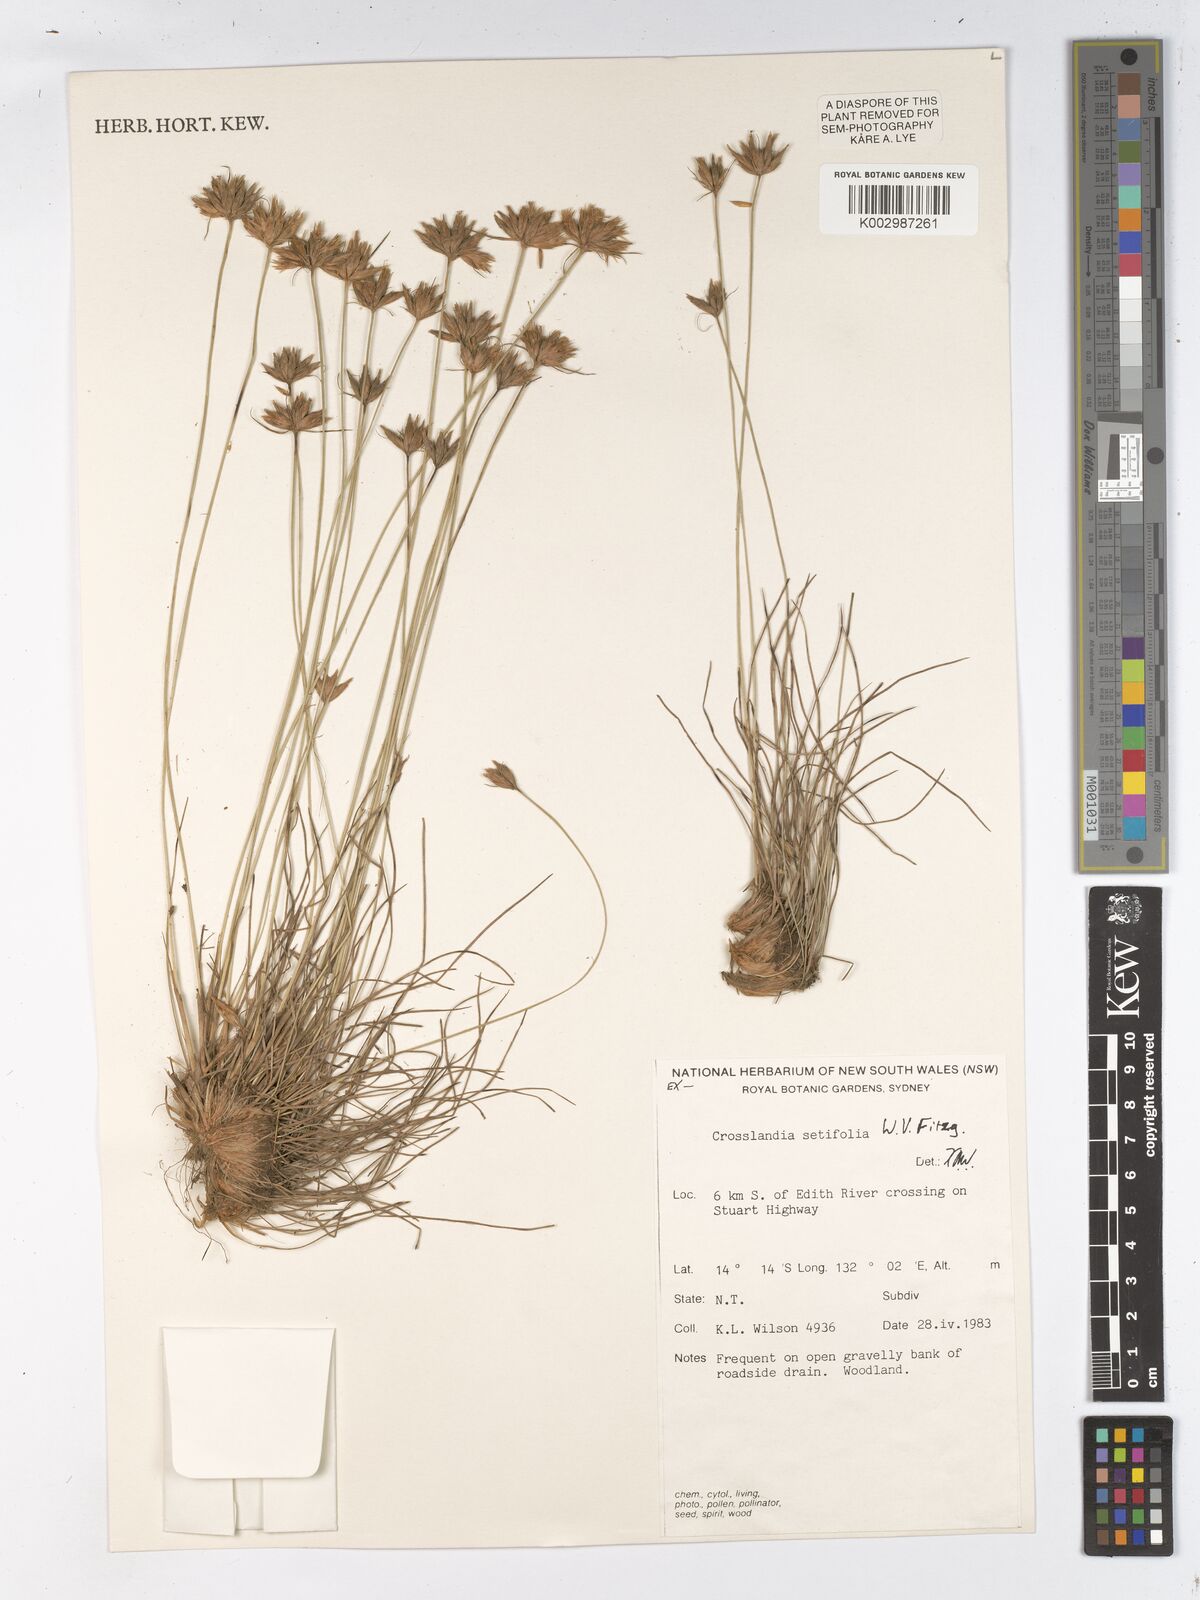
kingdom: Plantae
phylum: Tracheophyta
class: Liliopsida
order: Poales
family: Cyperaceae
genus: Fimbristylis
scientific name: Fimbristylis crosslandii
